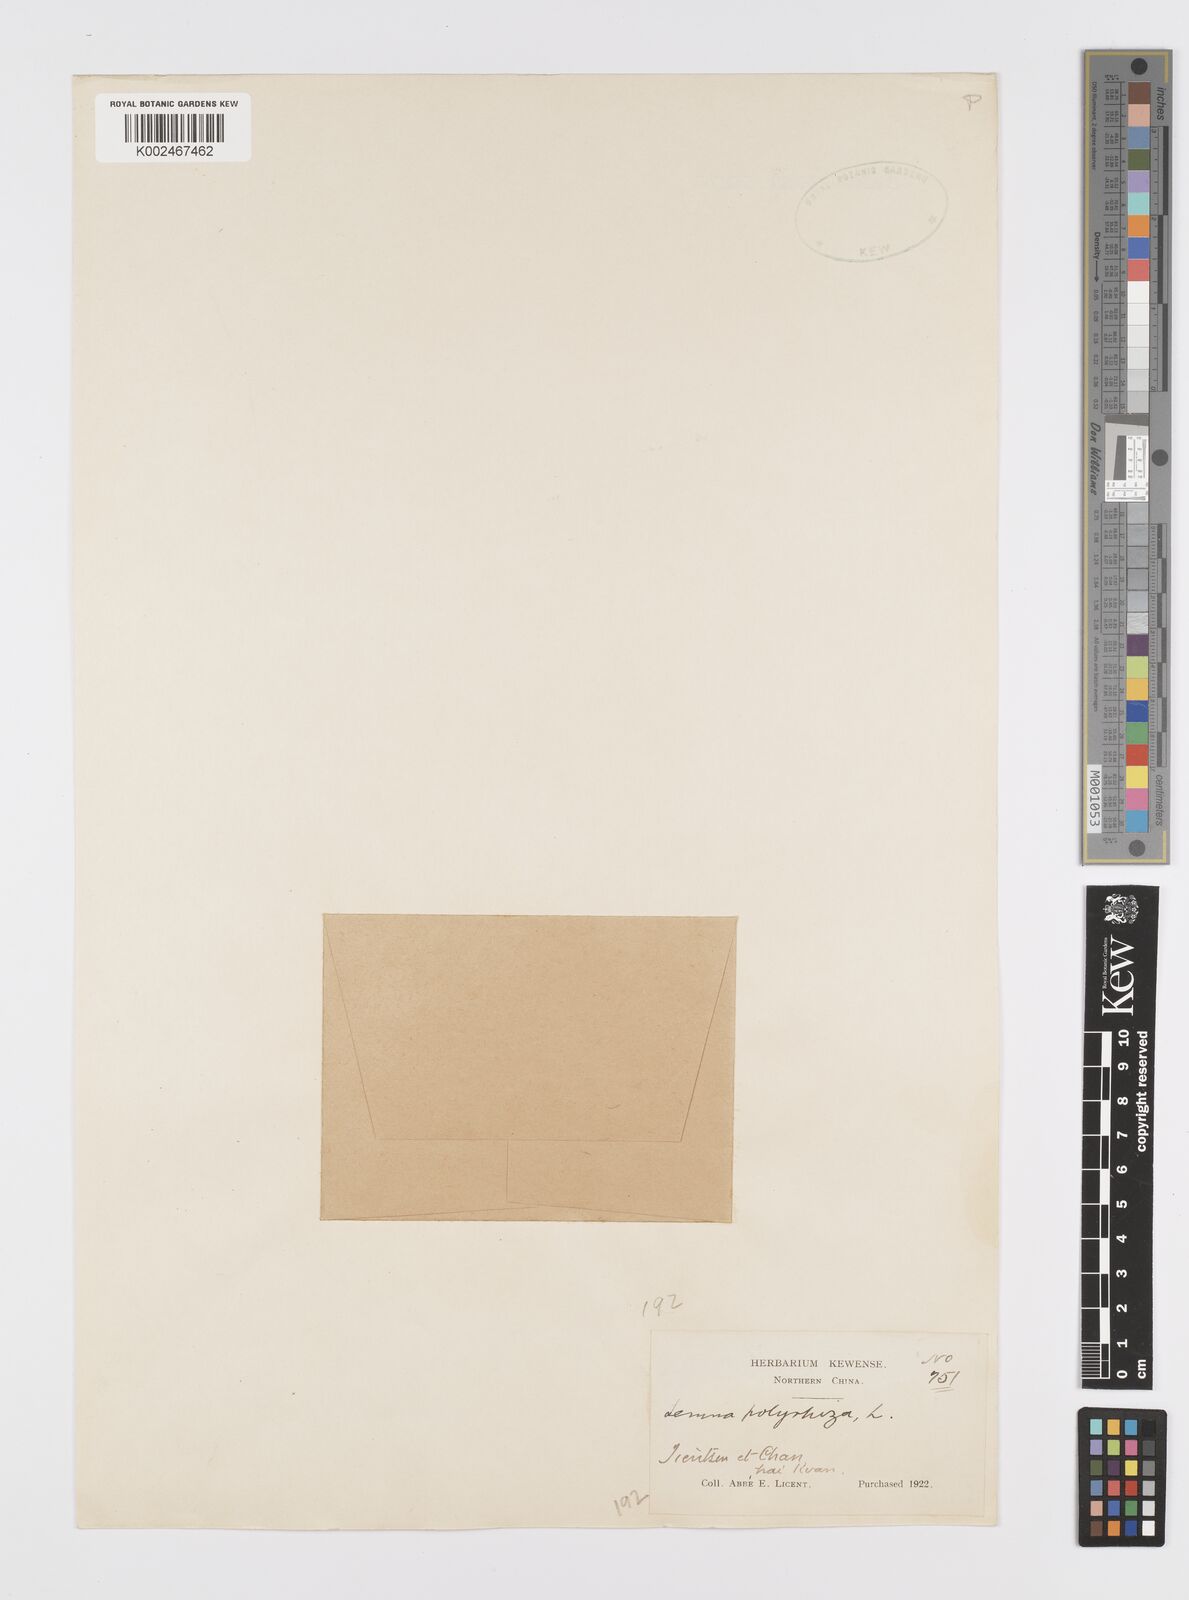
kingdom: Plantae
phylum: Tracheophyta
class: Liliopsida
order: Alismatales
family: Araceae
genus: Spirodela
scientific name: Spirodela polyrhiza
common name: Great duckweed
